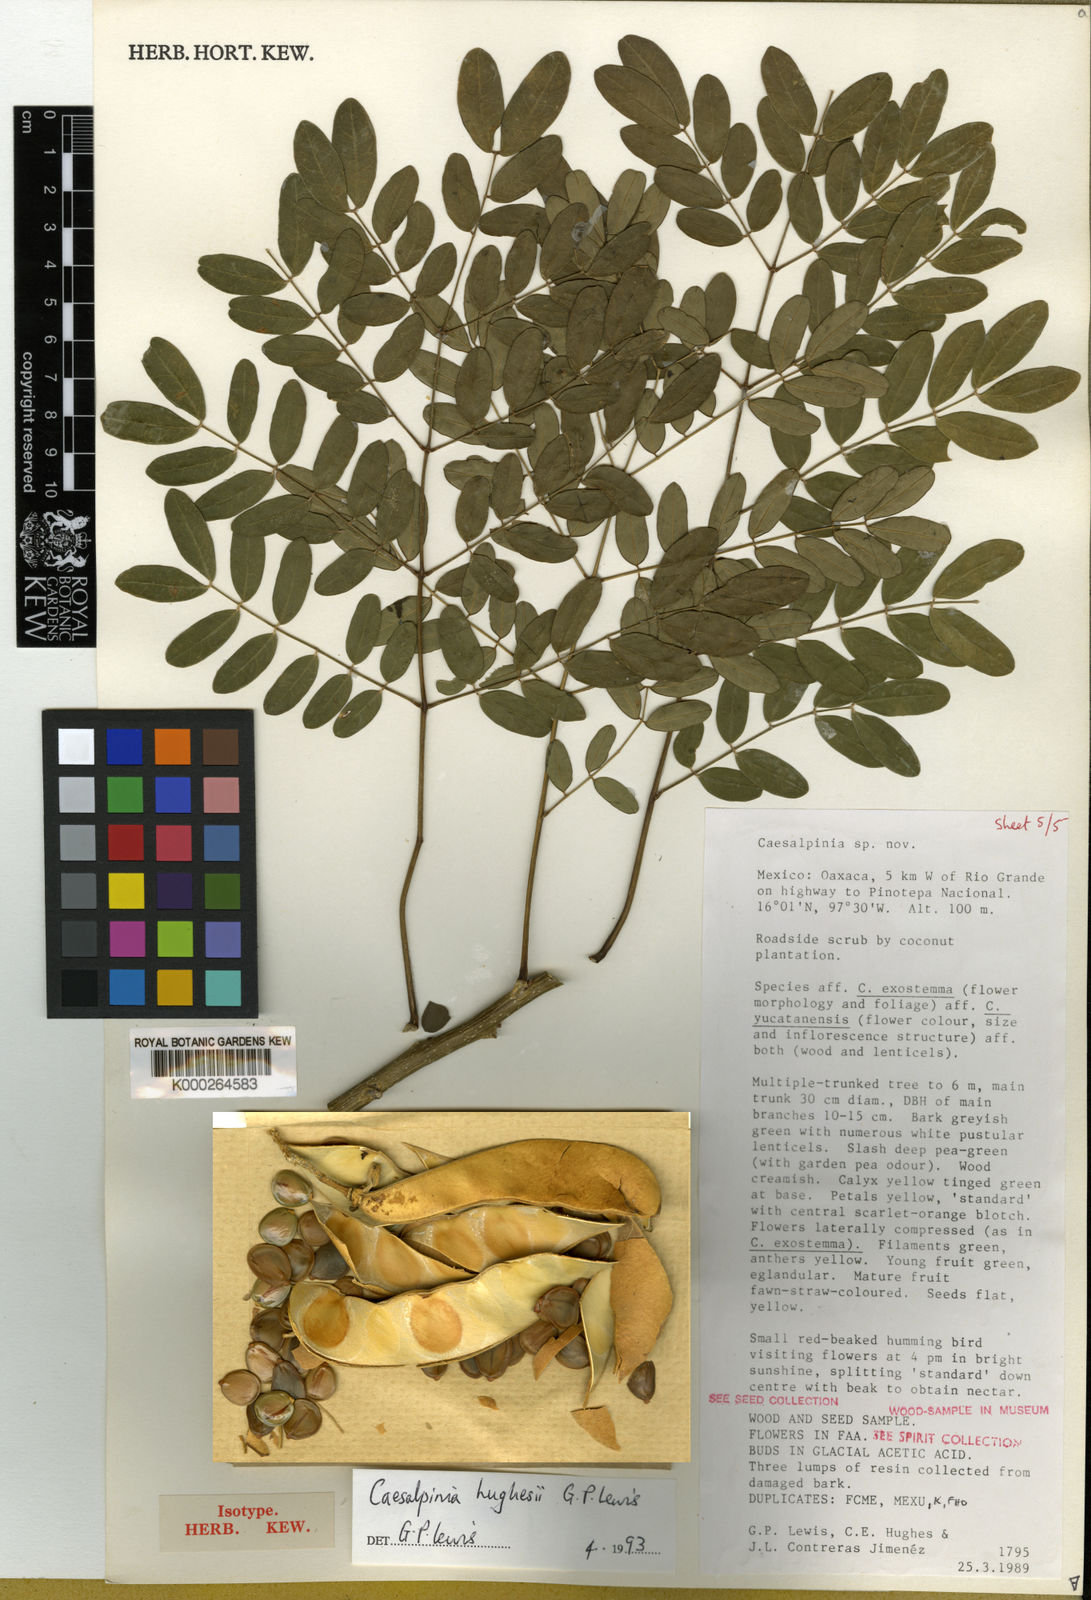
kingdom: Plantae
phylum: Tracheophyta
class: Magnoliopsida
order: Fabales
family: Fabaceae
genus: Erythrostemon
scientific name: Erythrostemon hughesii
